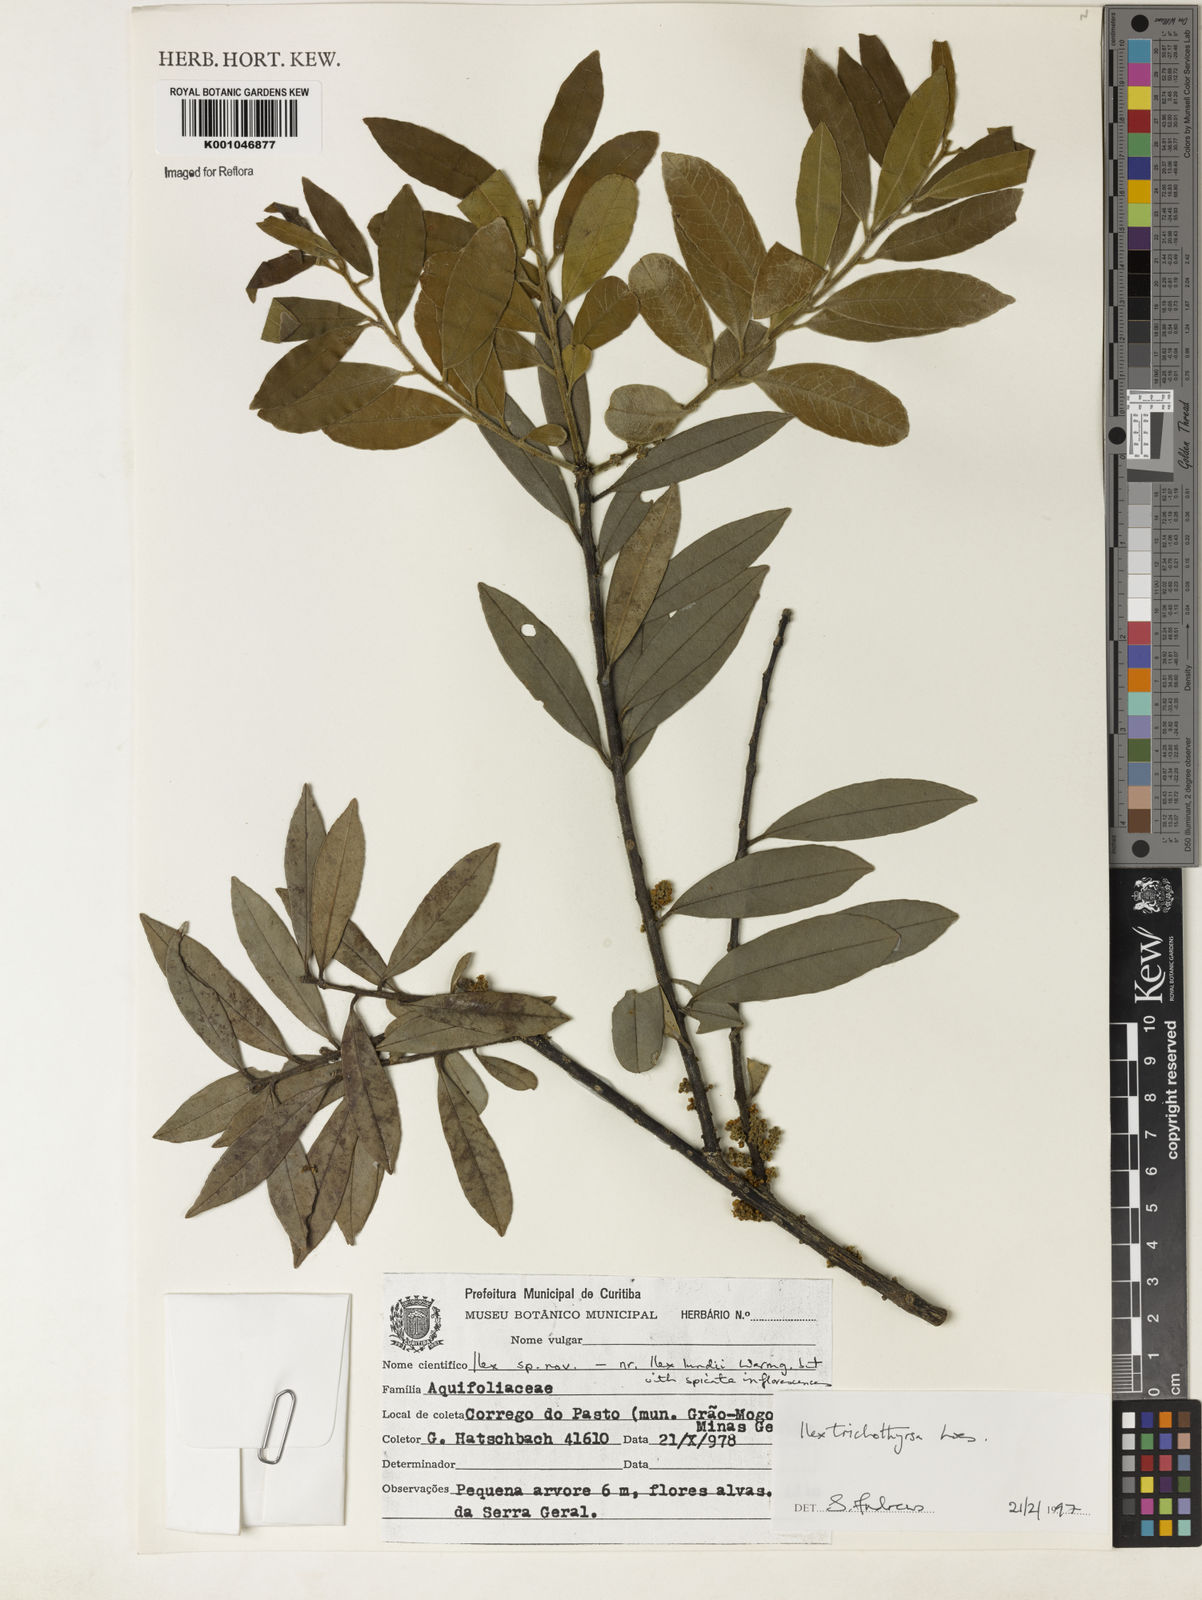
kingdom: Plantae
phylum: Tracheophyta
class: Magnoliopsida
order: Aquifoliales
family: Aquifoliaceae
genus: Ilex
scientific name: Ilex trichothyrsa
